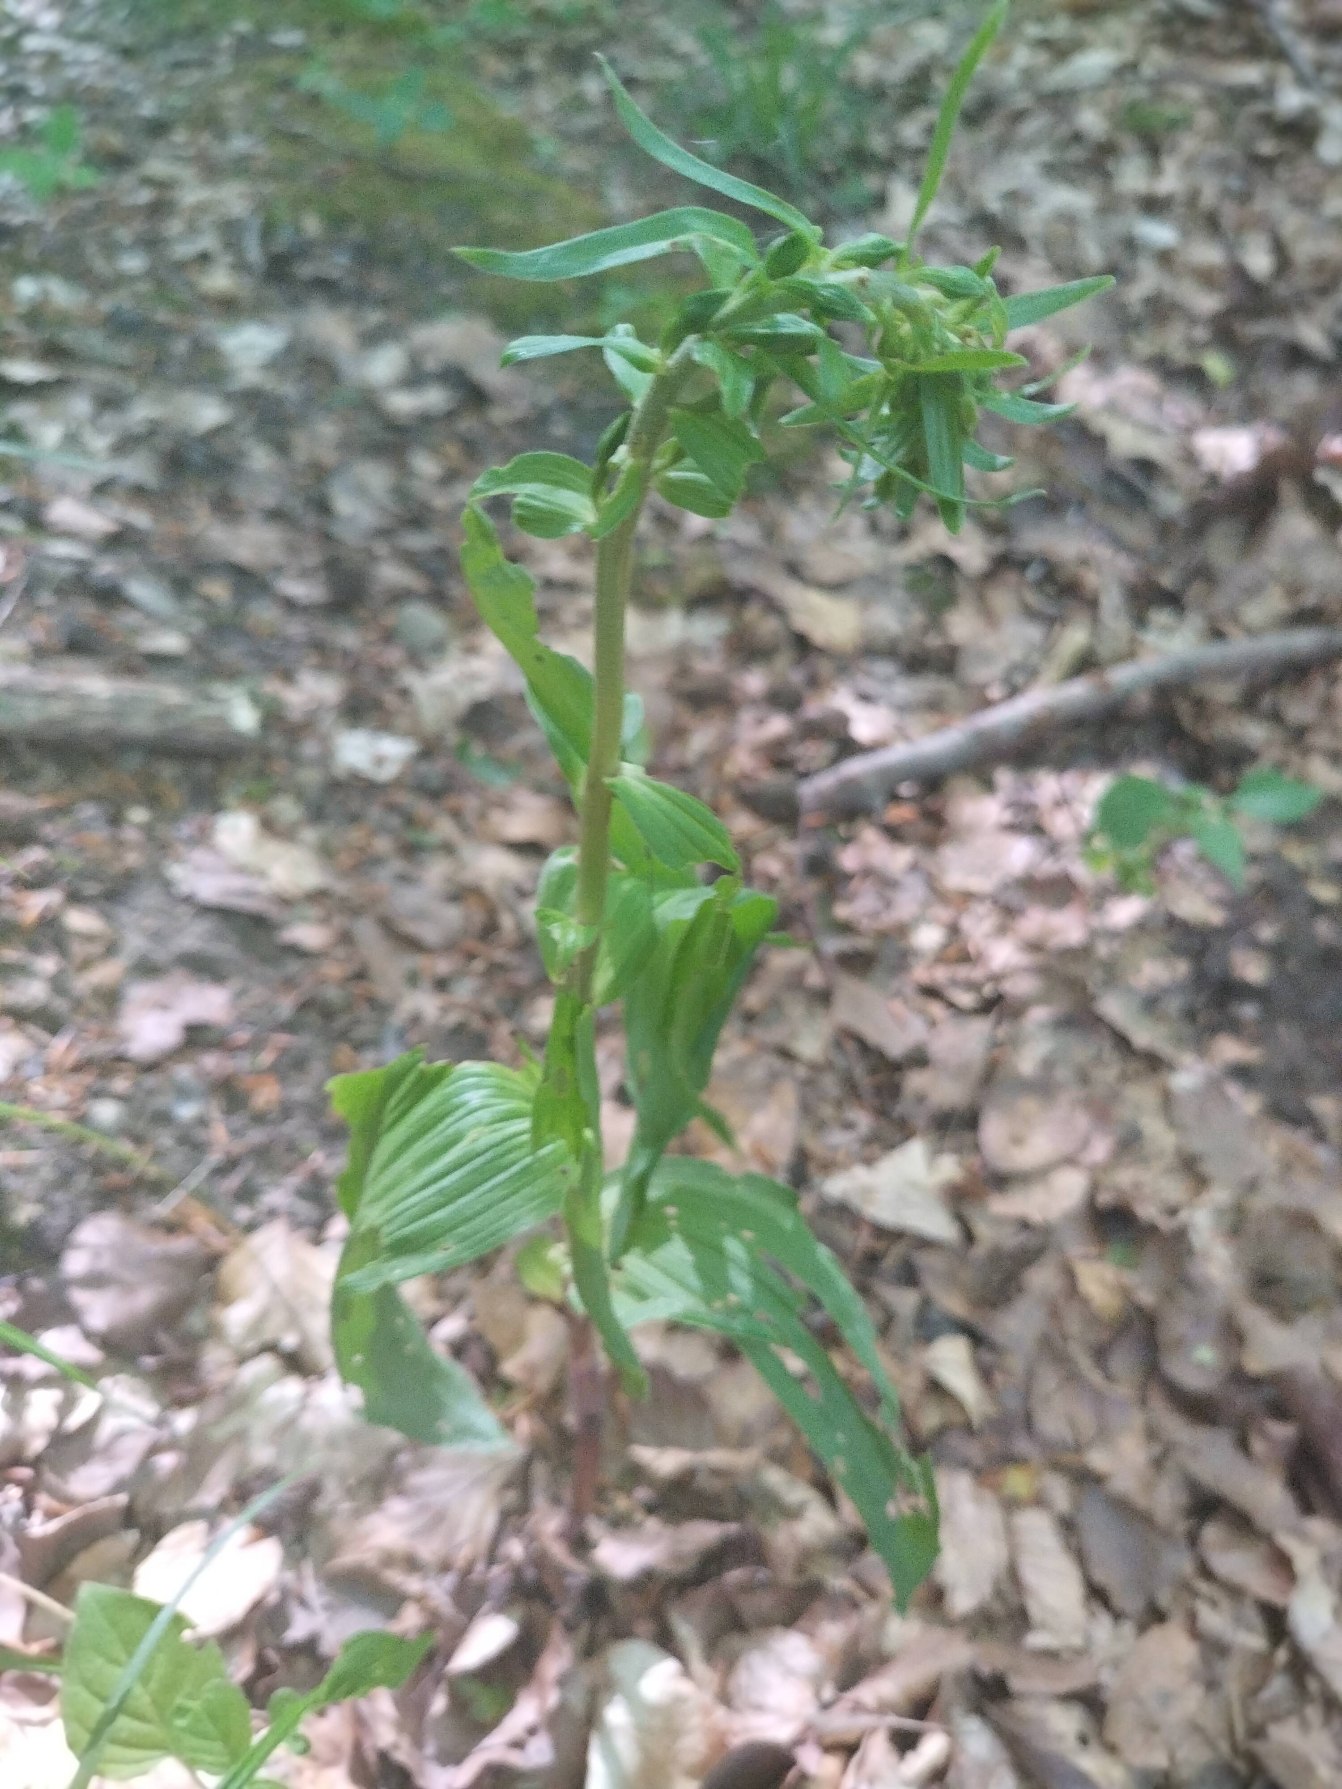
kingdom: Plantae
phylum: Tracheophyta
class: Liliopsida
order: Asparagales
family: Orchidaceae
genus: Epipactis
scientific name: Epipactis helleborine
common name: Skov-hullæbe
